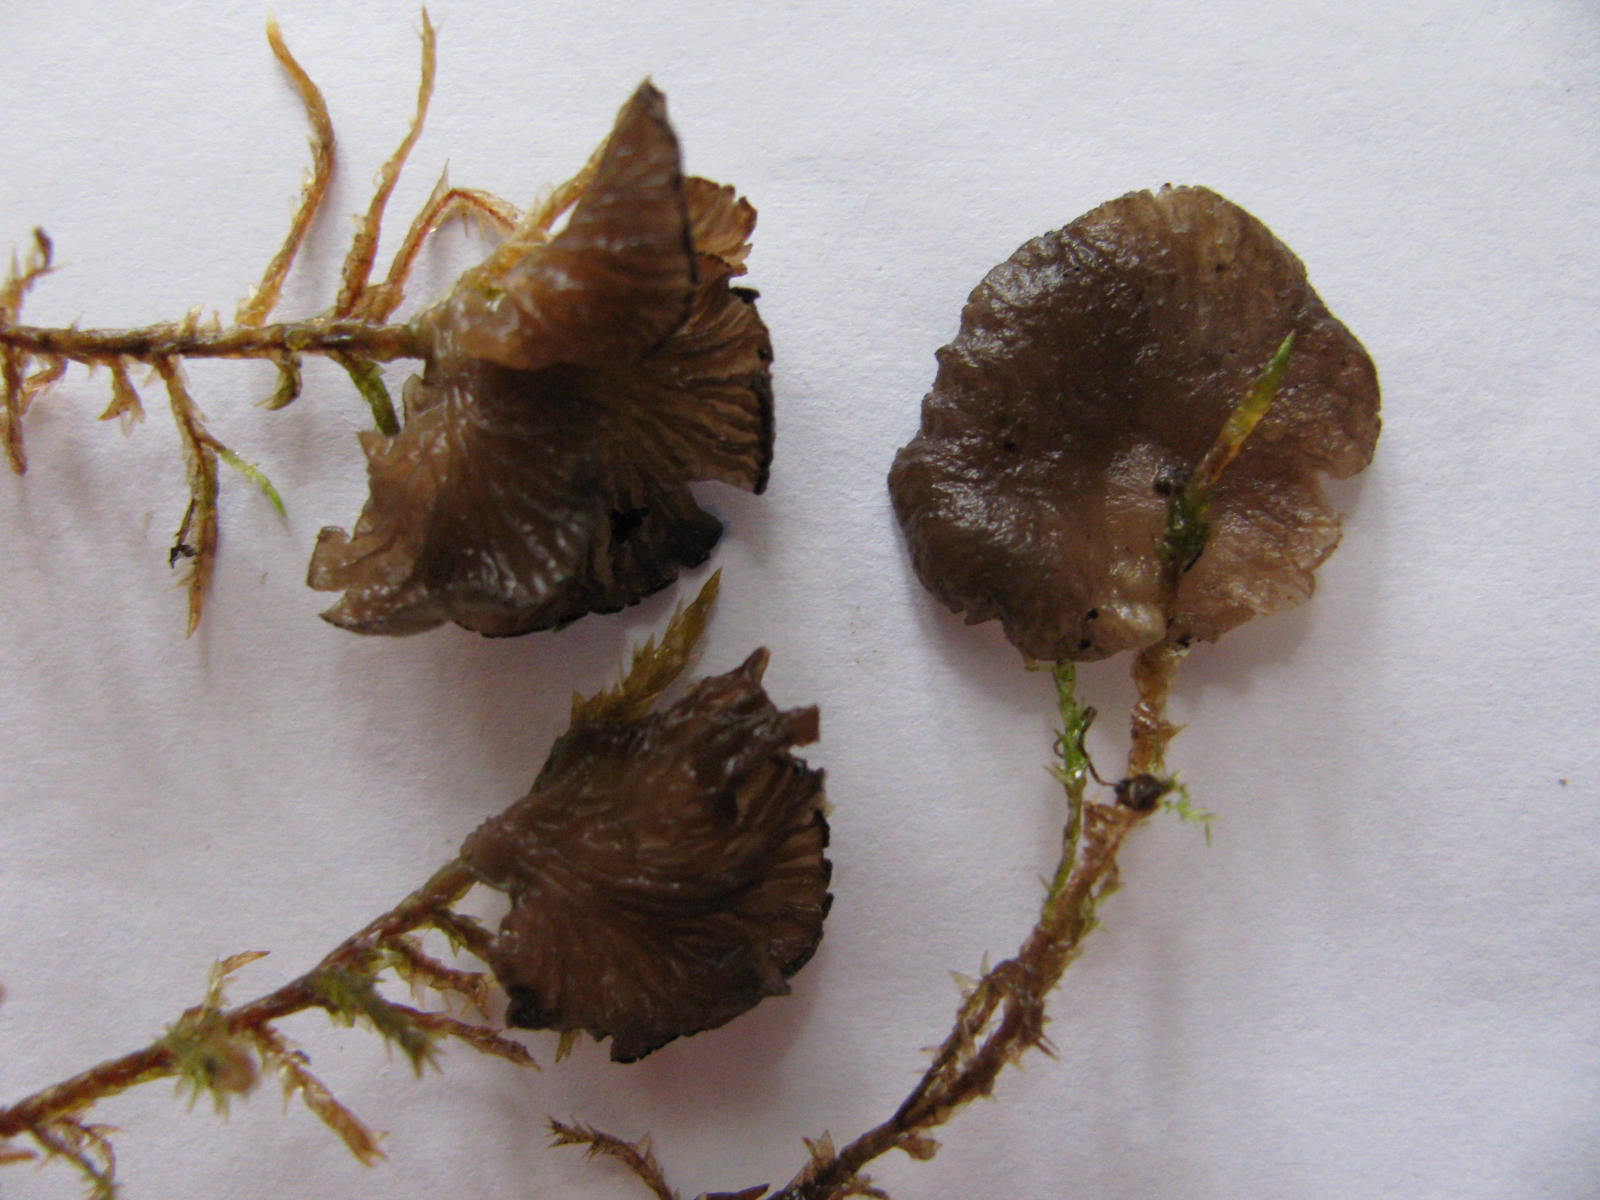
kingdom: Fungi
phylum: Basidiomycota
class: Agaricomycetes
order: Agaricales
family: Hygrophoraceae
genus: Arrhenia
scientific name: Arrhenia lobata
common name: siddende fontænehat
